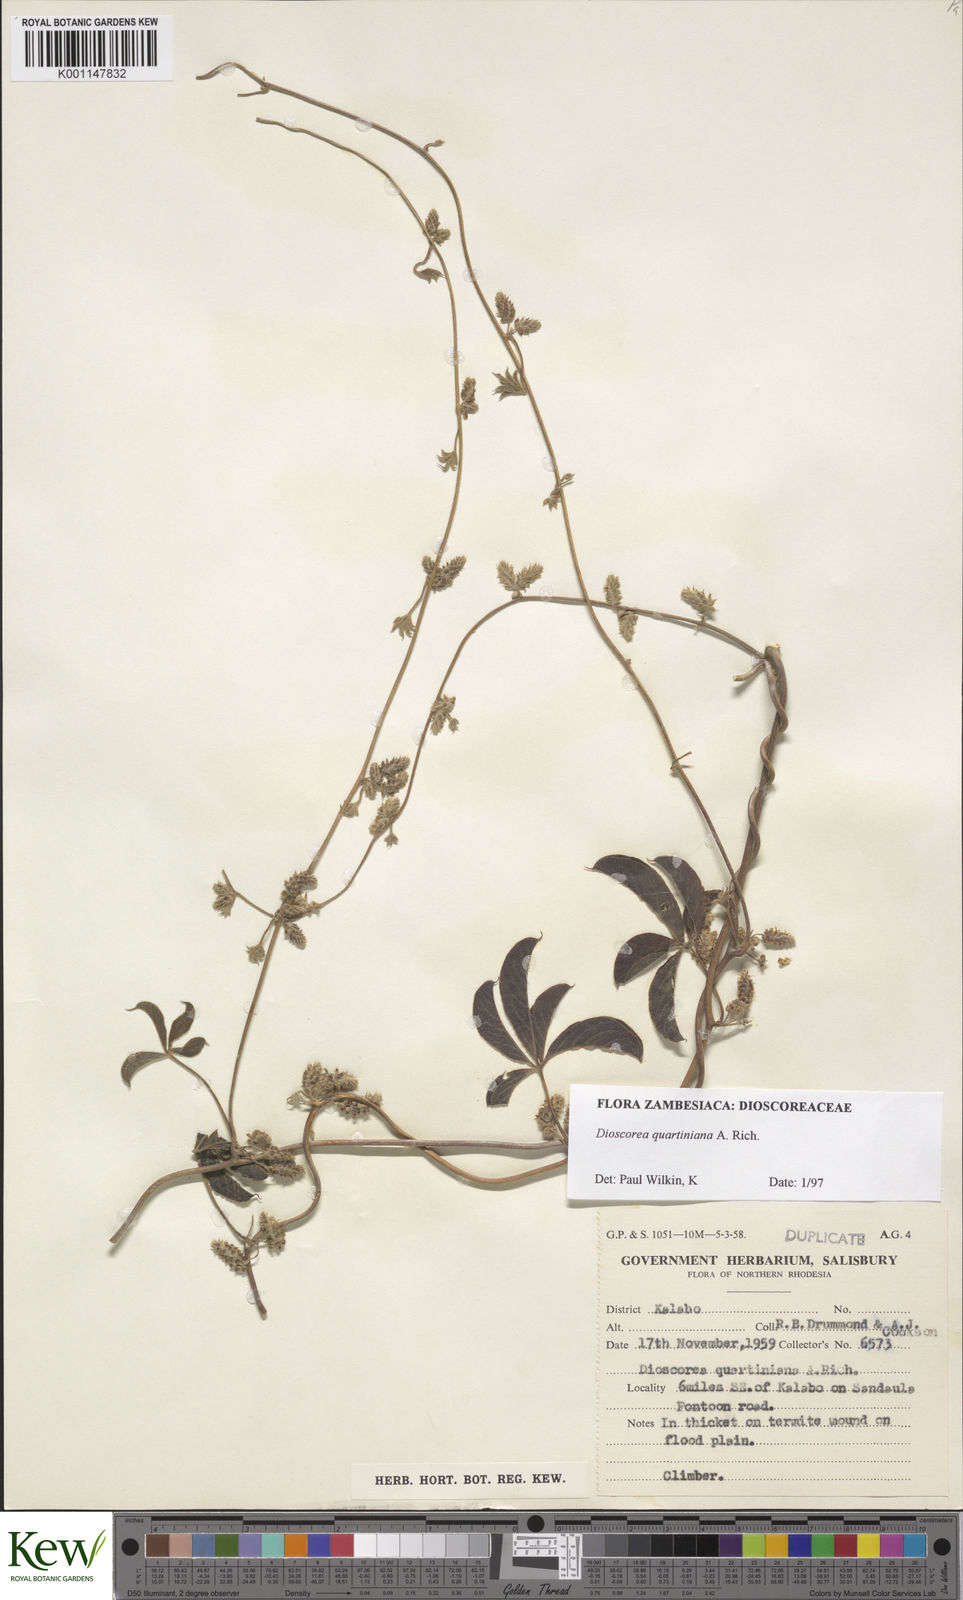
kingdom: Plantae
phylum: Tracheophyta
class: Liliopsida
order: Dioscoreales
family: Dioscoreaceae
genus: Dioscorea
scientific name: Dioscorea quartiniana
